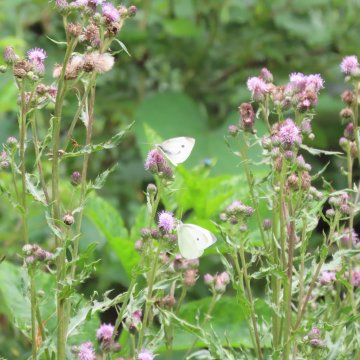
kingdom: Animalia
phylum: Arthropoda
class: Insecta
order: Lepidoptera
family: Pieridae
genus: Pieris
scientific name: Pieris rapae
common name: Cabbage White
